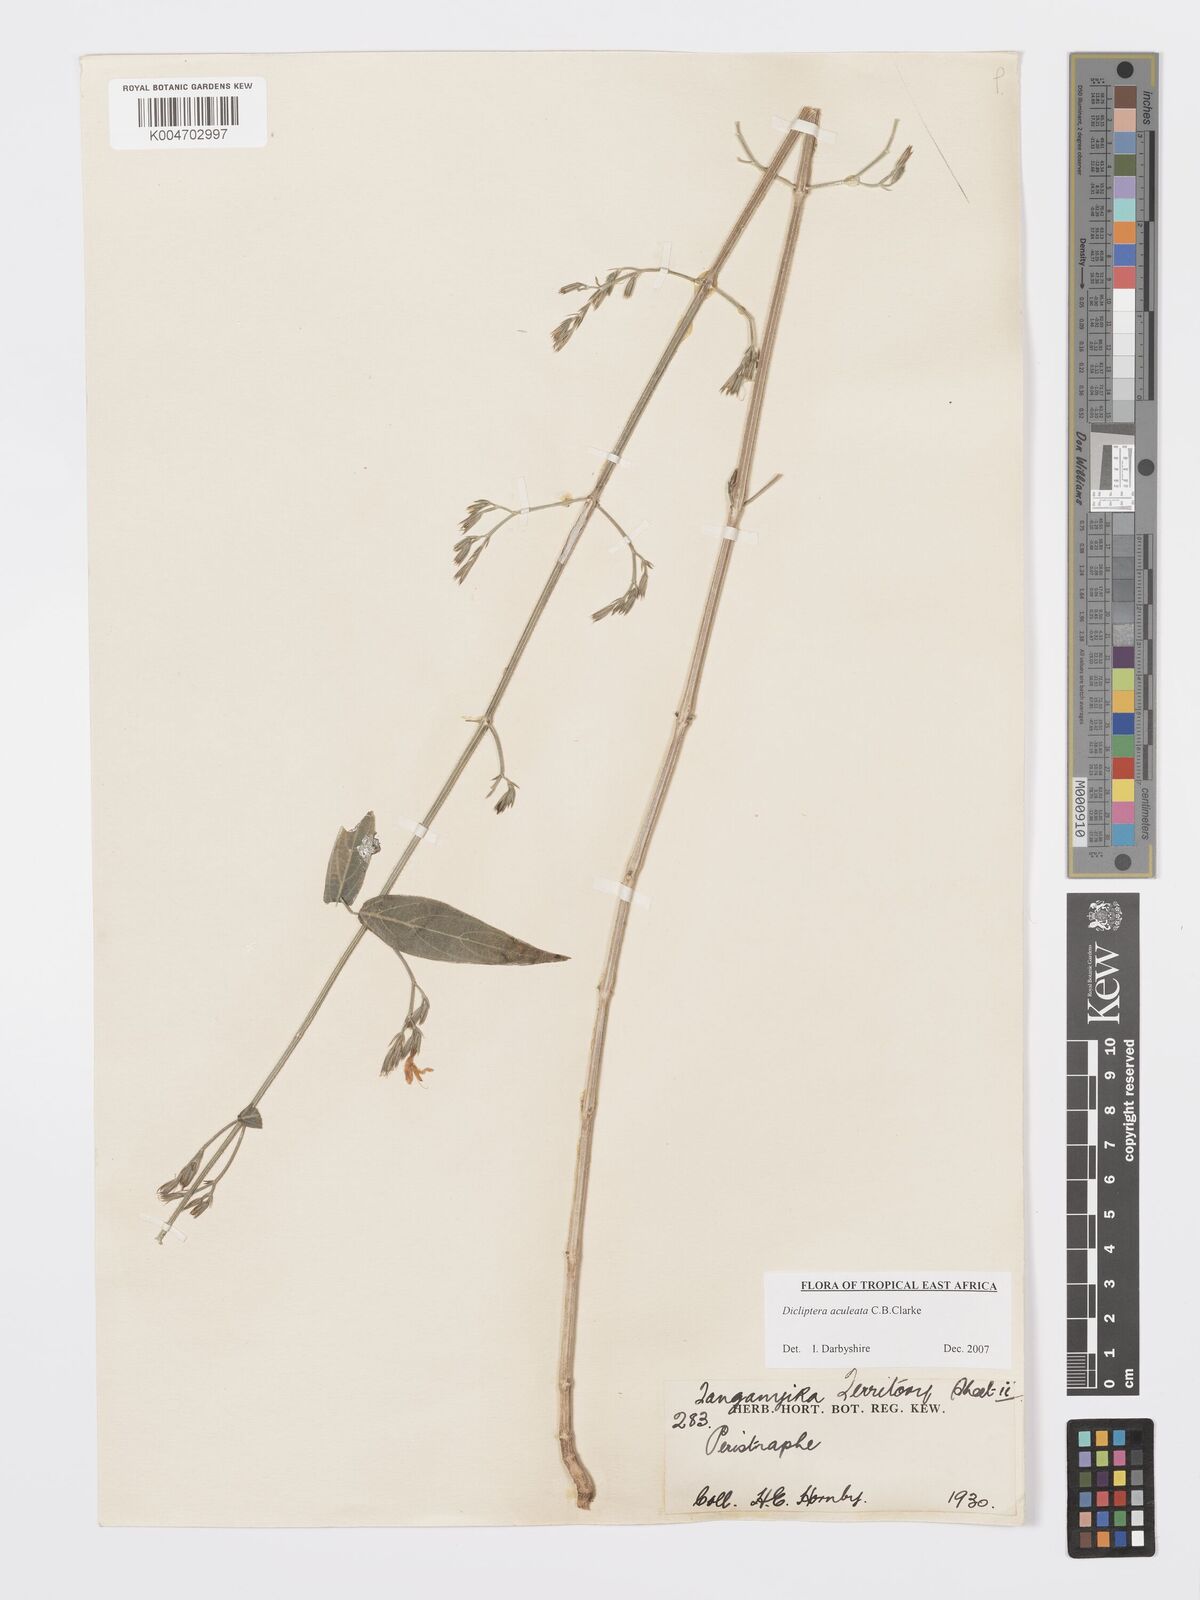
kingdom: Plantae
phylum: Tracheophyta
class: Magnoliopsida
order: Lamiales
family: Acanthaceae
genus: Dicliptera
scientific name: Dicliptera hensii
